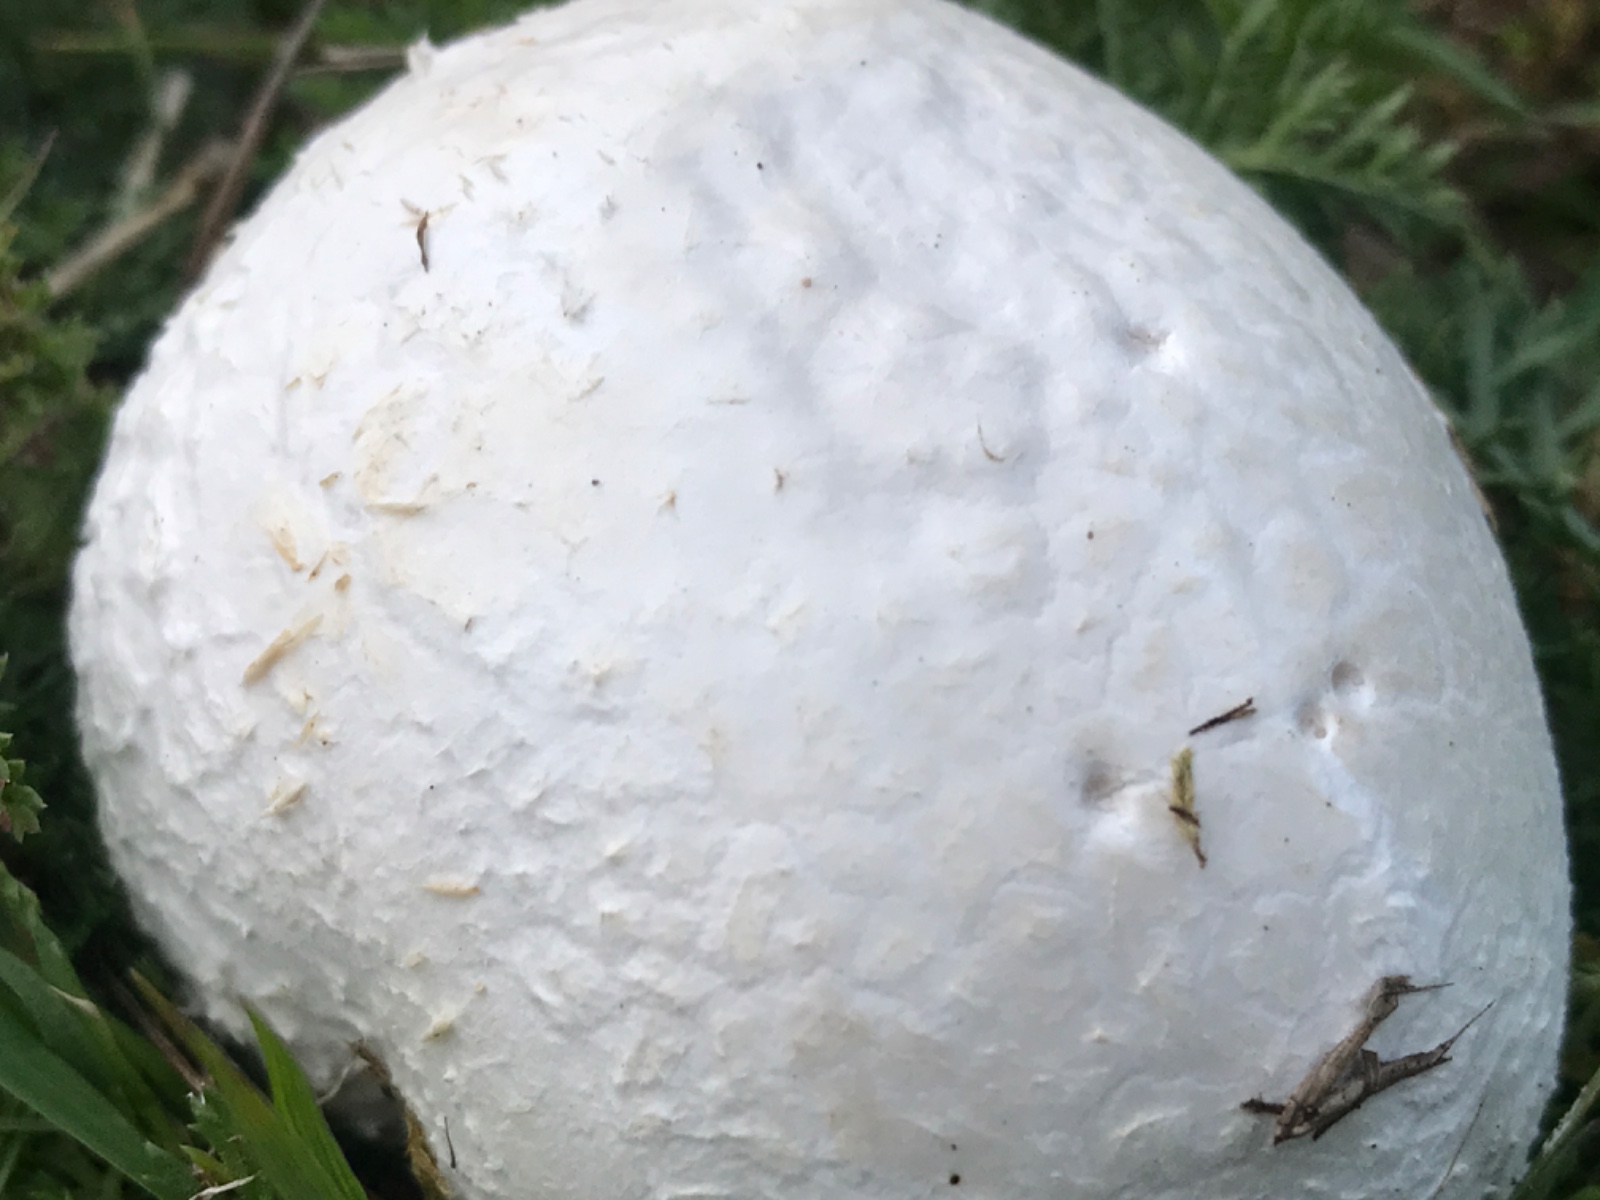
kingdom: Fungi
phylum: Basidiomycota
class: Agaricomycetes
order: Agaricales
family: Lycoperdaceae
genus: Bovista
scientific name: Bovista
